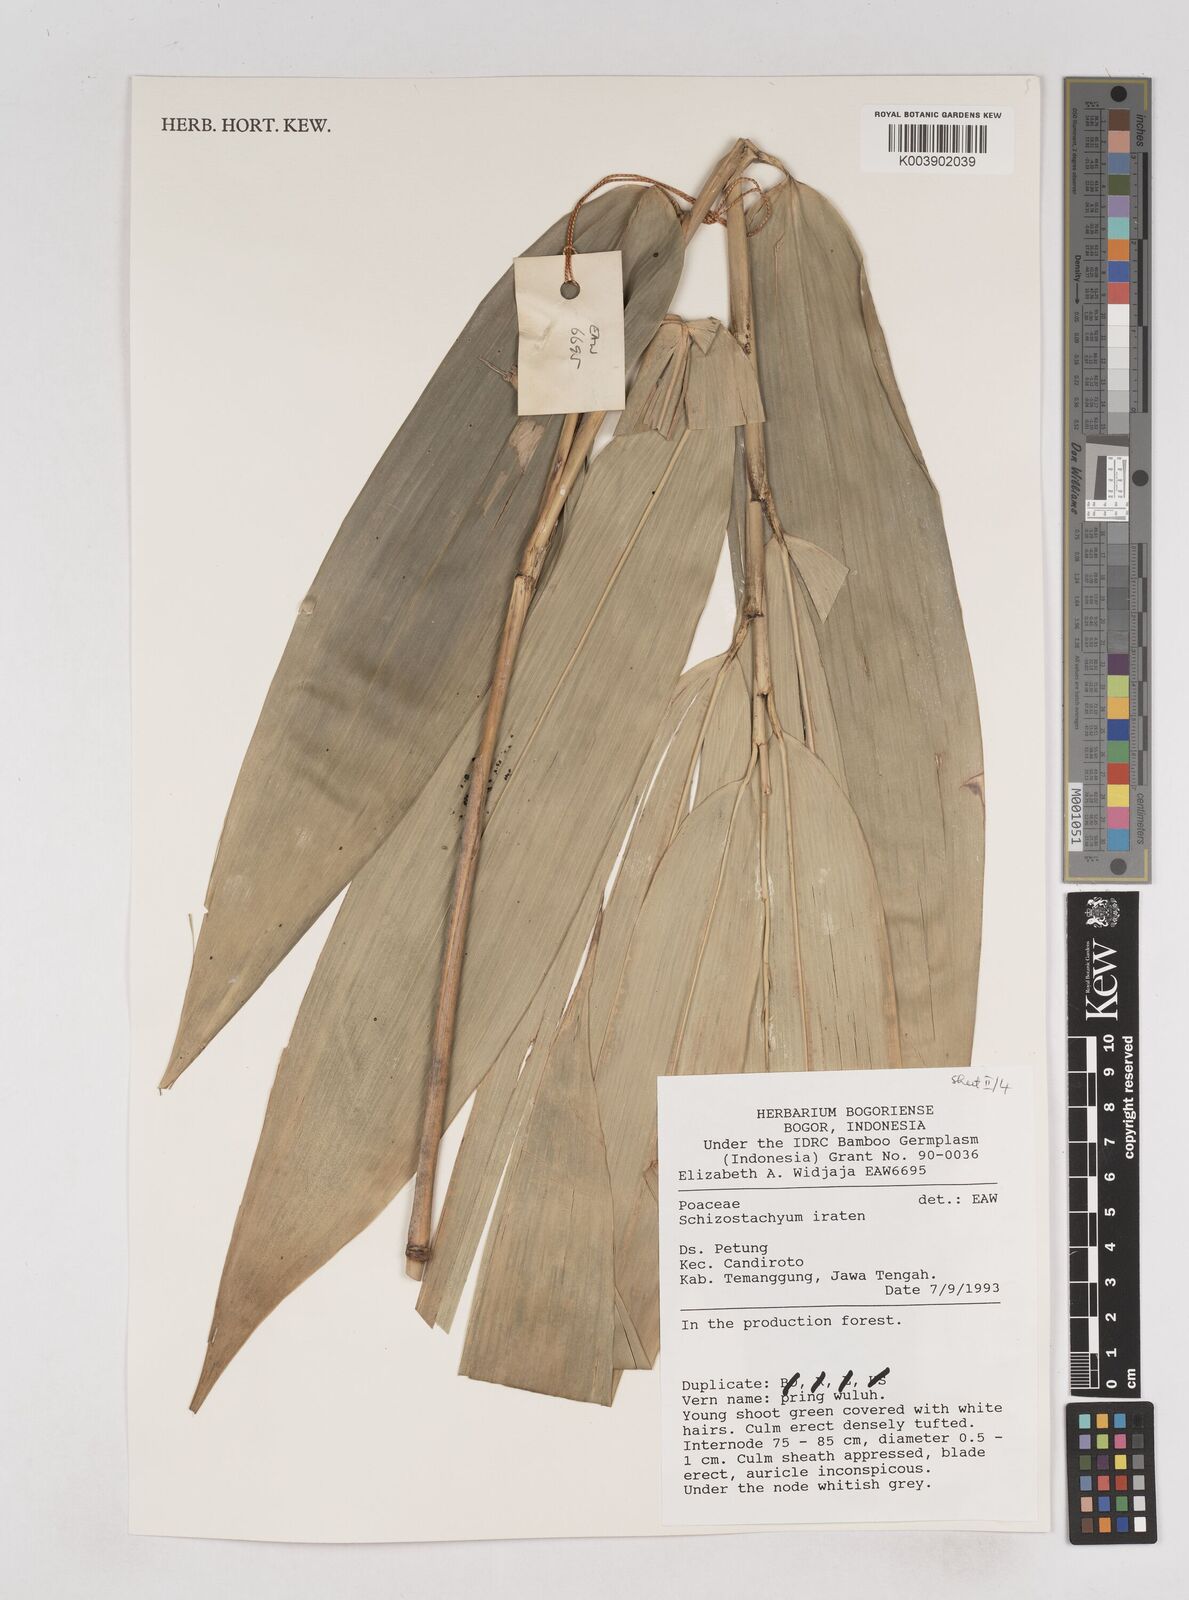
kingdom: Plantae
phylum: Tracheophyta
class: Liliopsida
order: Poales
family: Poaceae
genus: Schizostachyum
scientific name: Schizostachyum iraten
